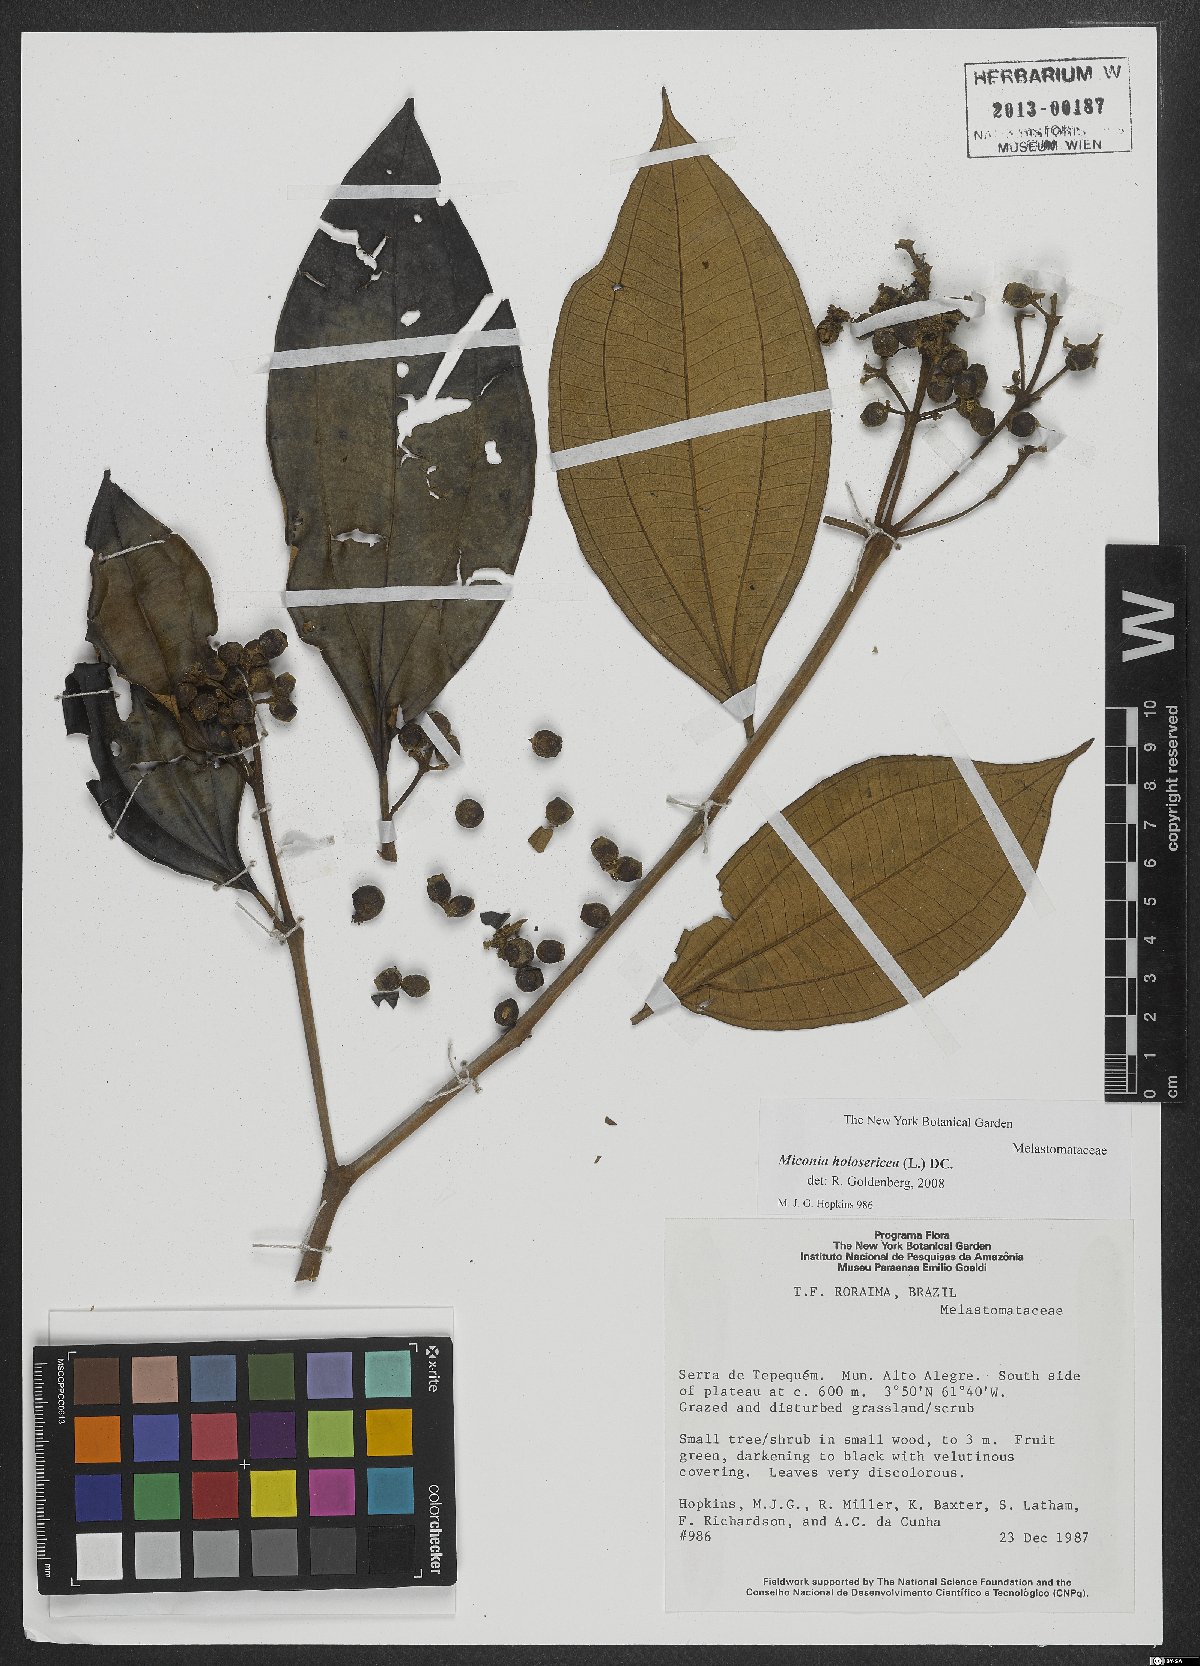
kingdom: Plantae
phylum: Tracheophyta
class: Magnoliopsida
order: Myrtales
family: Melastomataceae
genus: Miconia
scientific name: Miconia holosericea
